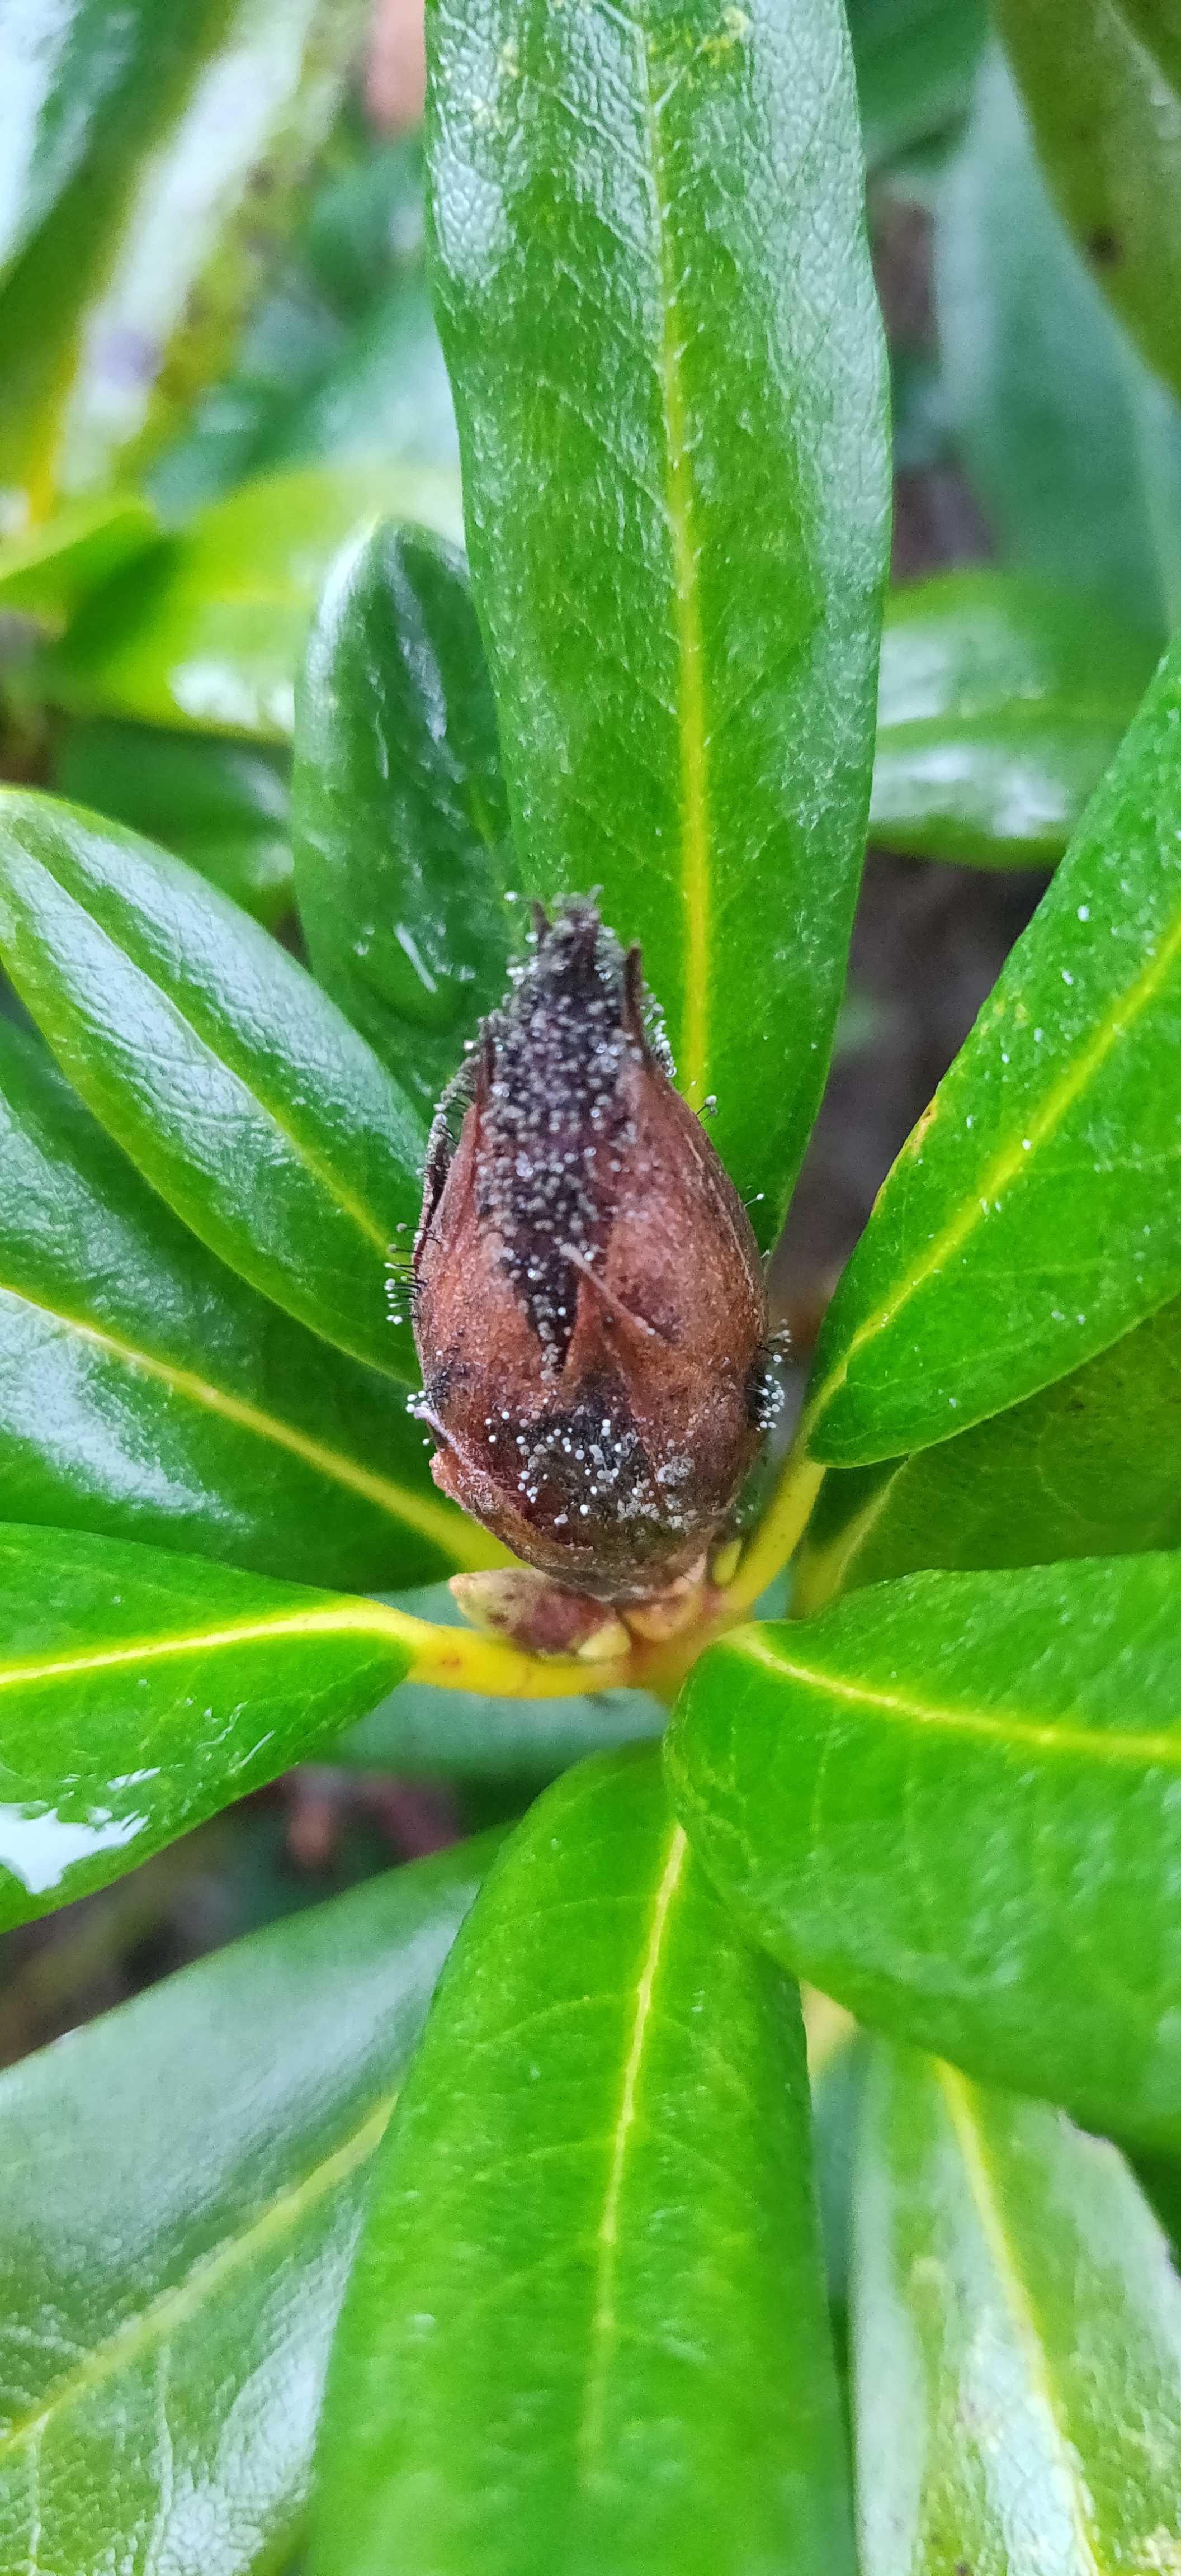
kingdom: Fungi
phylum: Ascomycota
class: Dothideomycetes
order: Pleosporales
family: Melanommataceae
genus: Seifertia
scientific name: Seifertia azaleae
